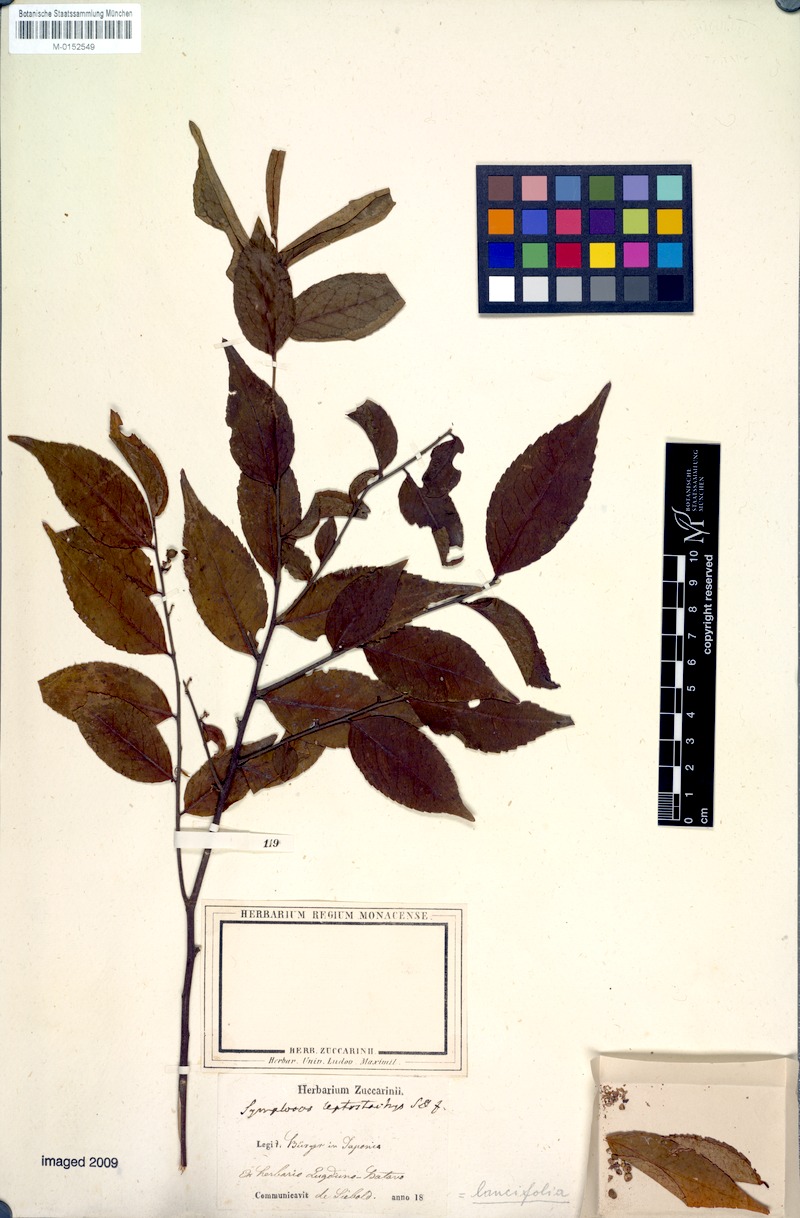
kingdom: Plantae
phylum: Tracheophyta
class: Magnoliopsida
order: Ericales
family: Symplocaceae
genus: Symplocos
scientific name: Symplocos lancifolia
